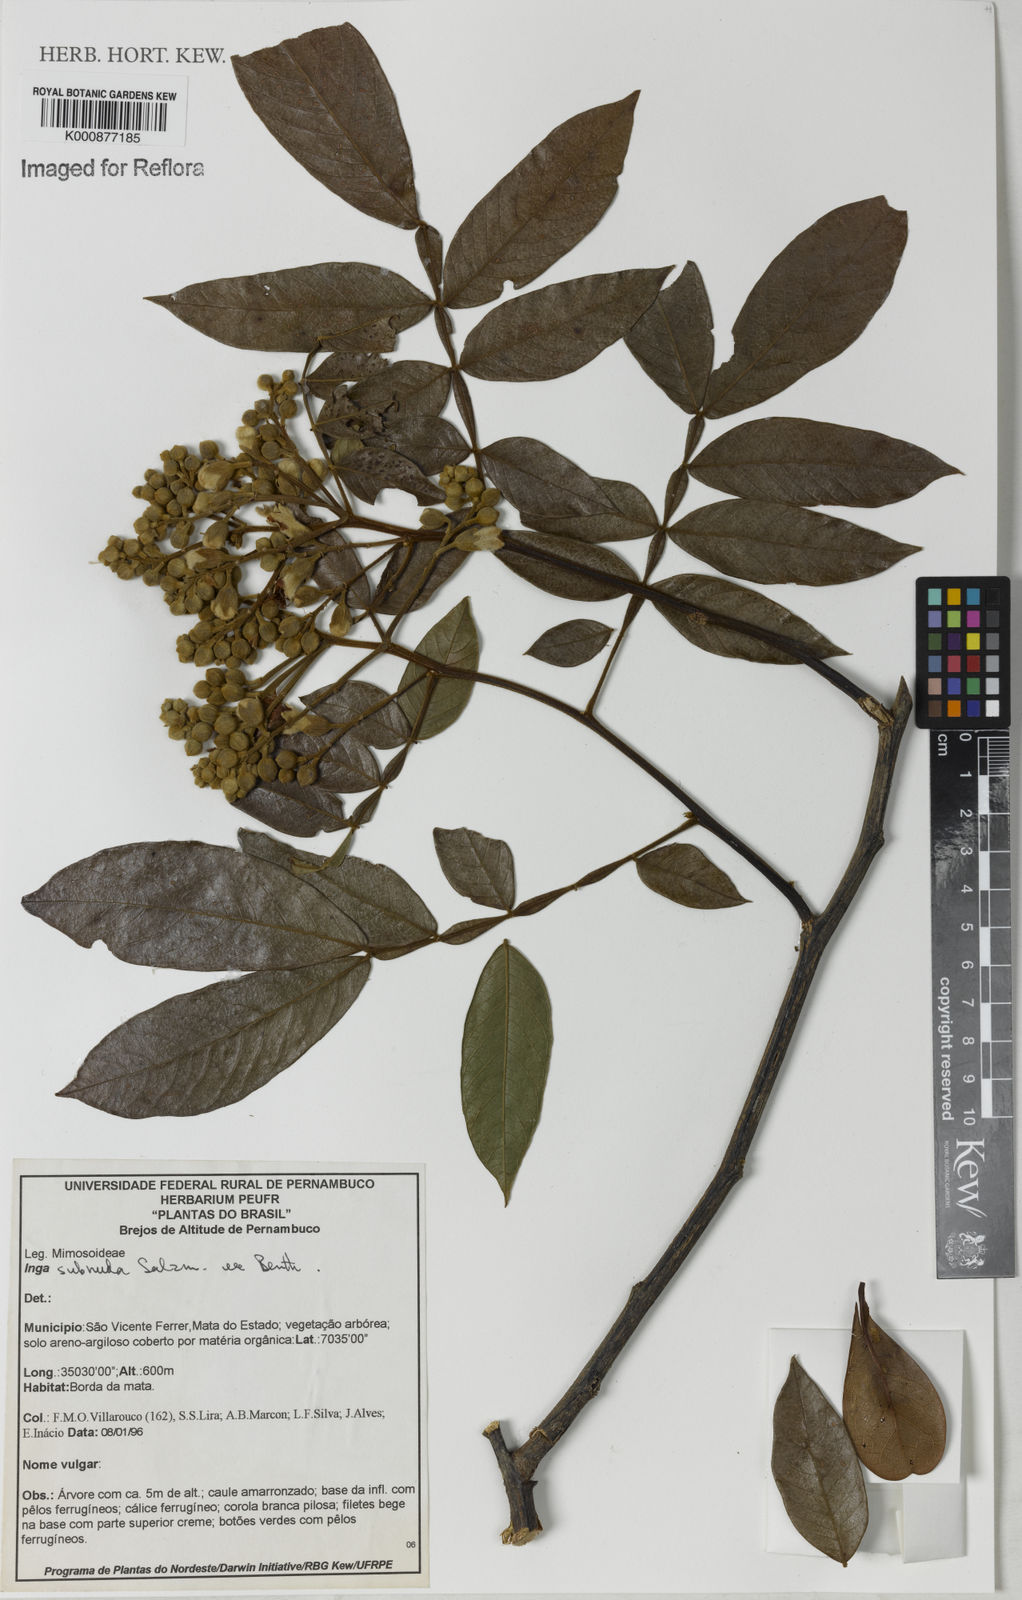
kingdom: Plantae
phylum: Tracheophyta
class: Magnoliopsida
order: Fabales
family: Fabaceae
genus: Inga
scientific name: Inga subnuda
